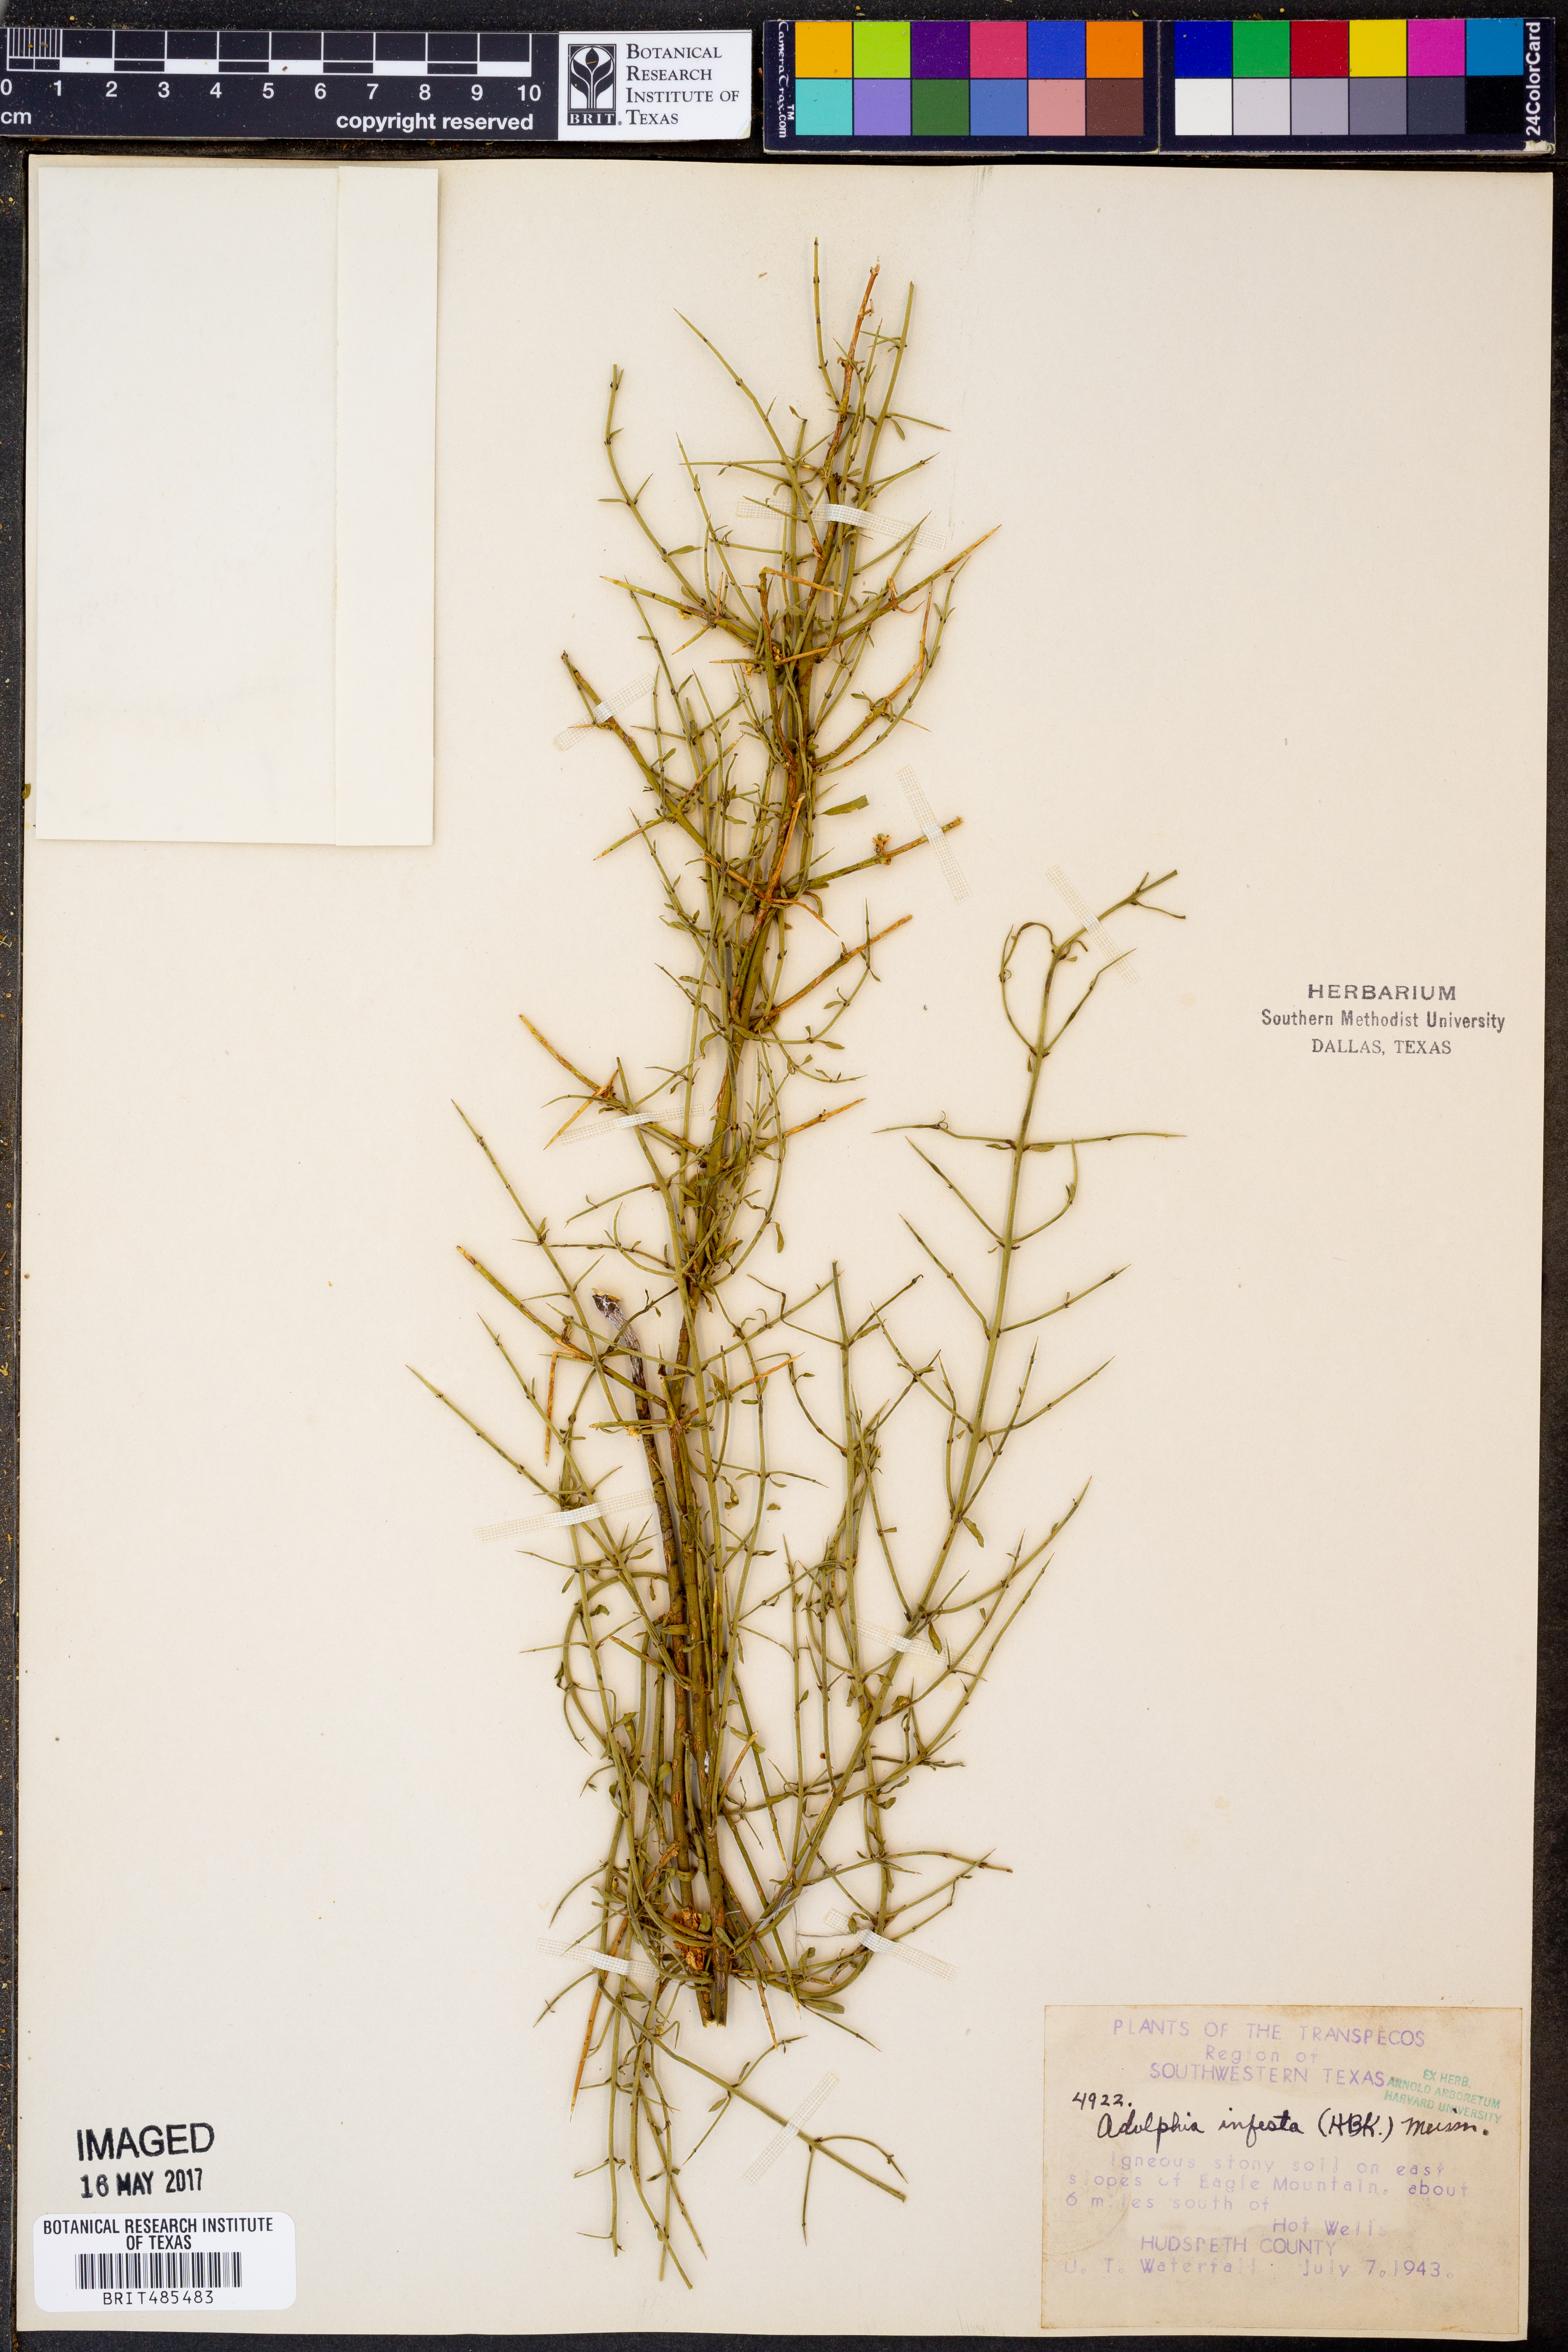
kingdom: Plantae
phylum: Tracheophyta
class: Magnoliopsida
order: Rosales
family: Rhamnaceae
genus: Adolphia
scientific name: Adolphia infesta
